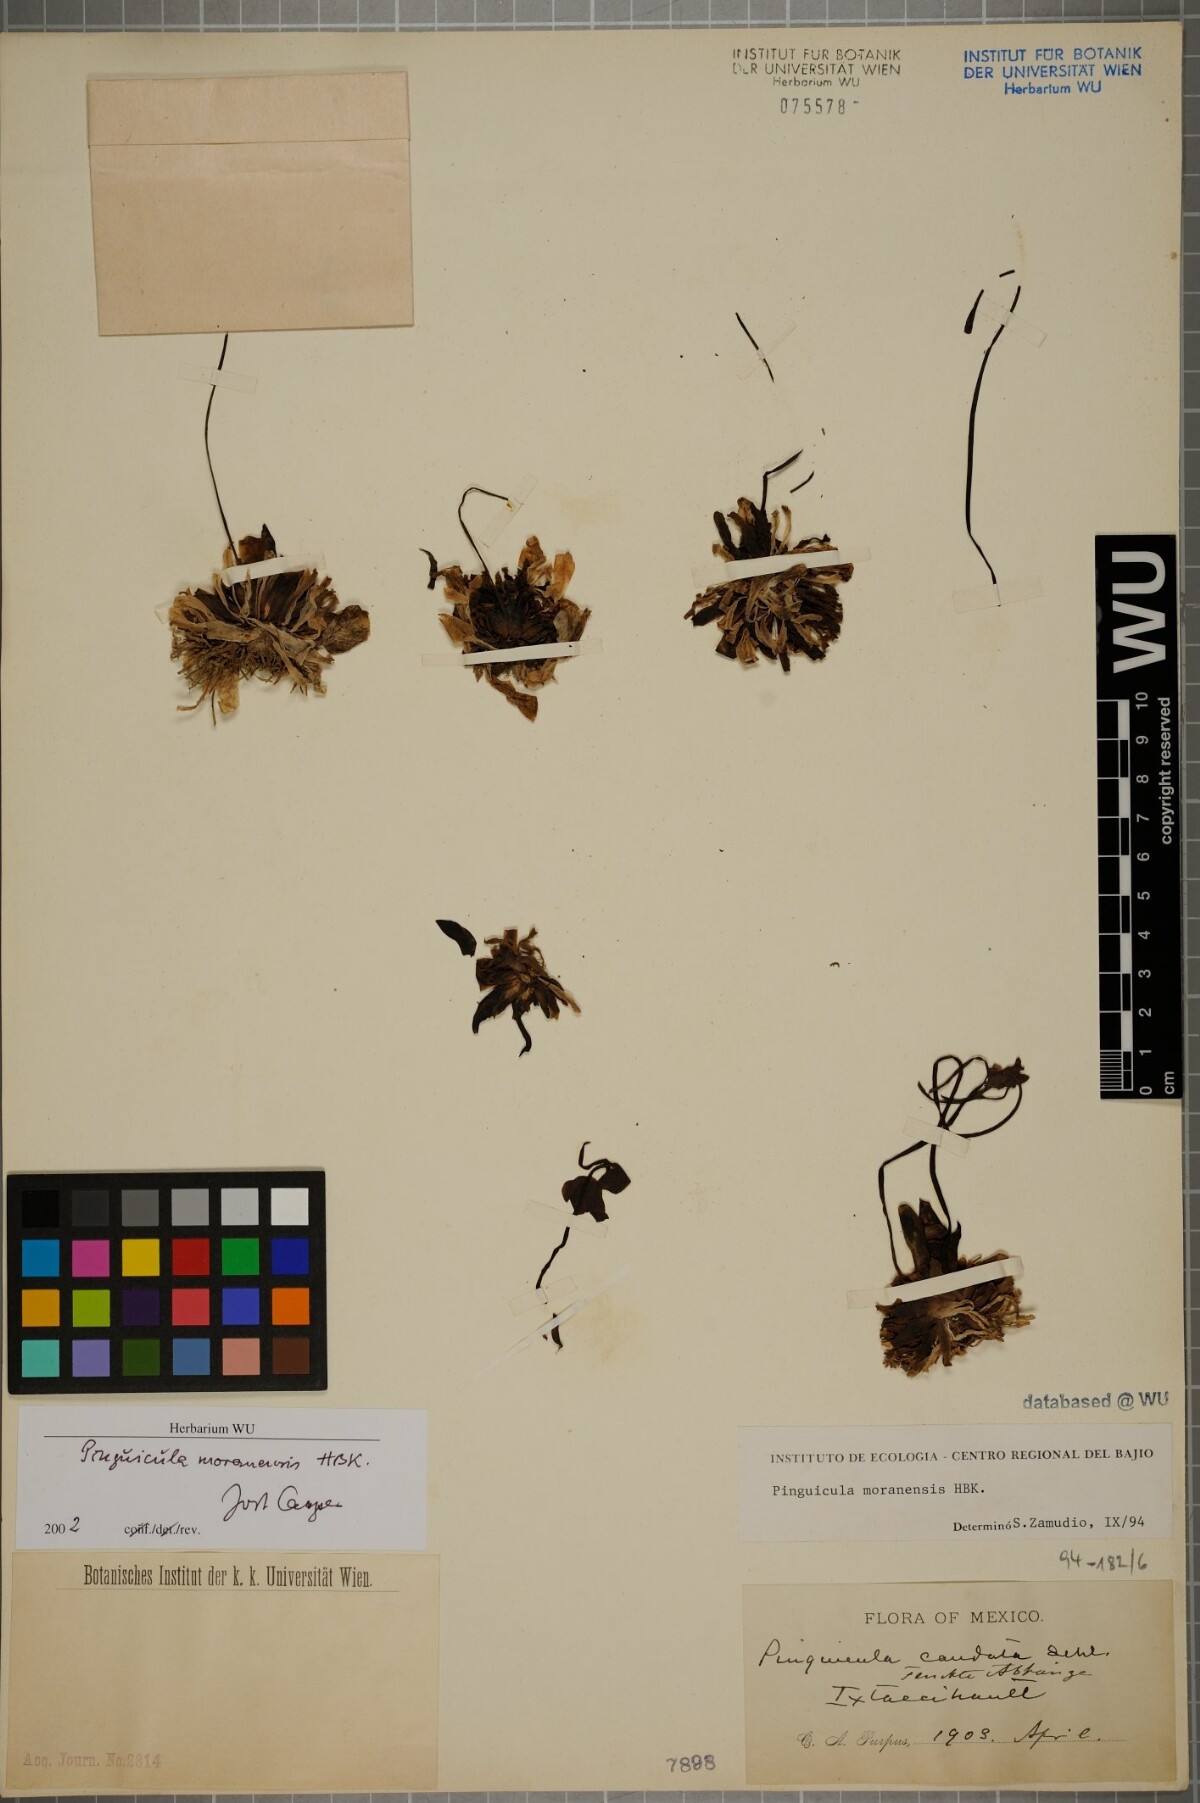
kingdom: Plantae
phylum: Tracheophyta
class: Magnoliopsida
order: Lamiales
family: Lentibulariaceae
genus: Pinguicula
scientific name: Pinguicula moranensis
